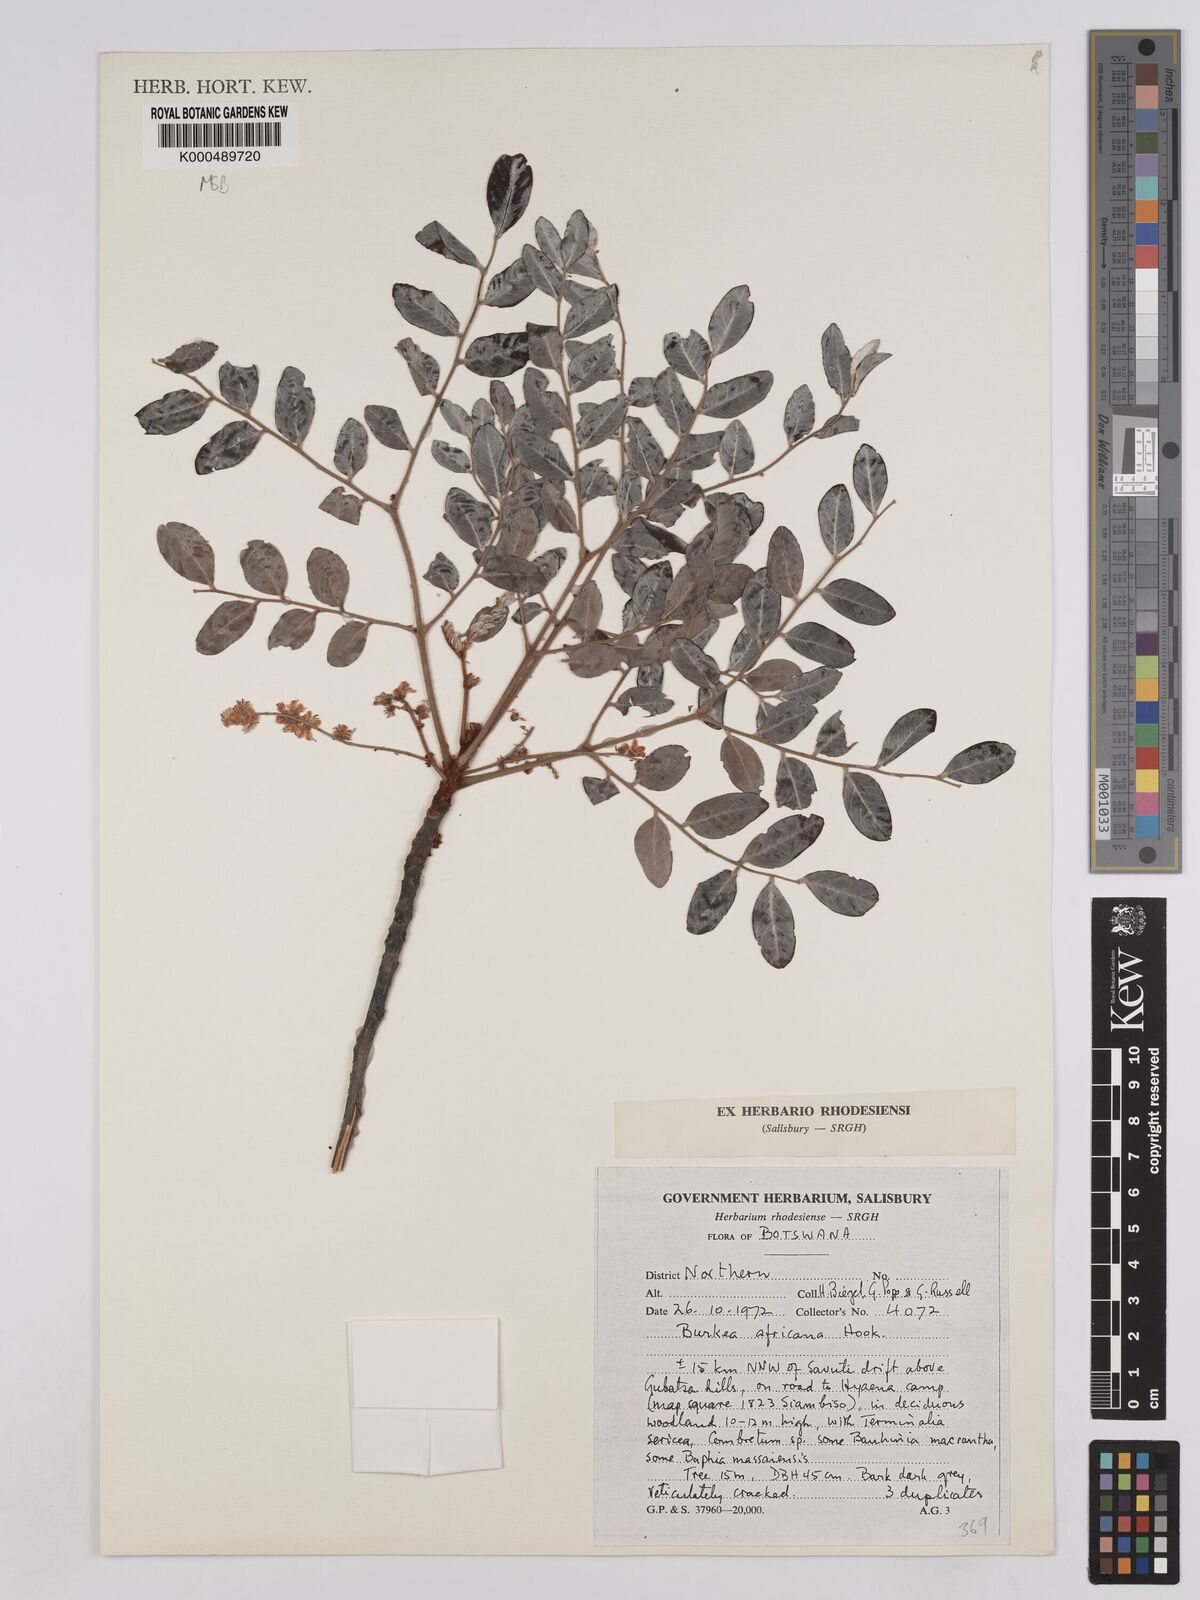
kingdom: Plantae
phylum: Tracheophyta
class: Magnoliopsida
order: Fabales
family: Fabaceae
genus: Burkea
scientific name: Burkea africana
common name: Mkalati tree
